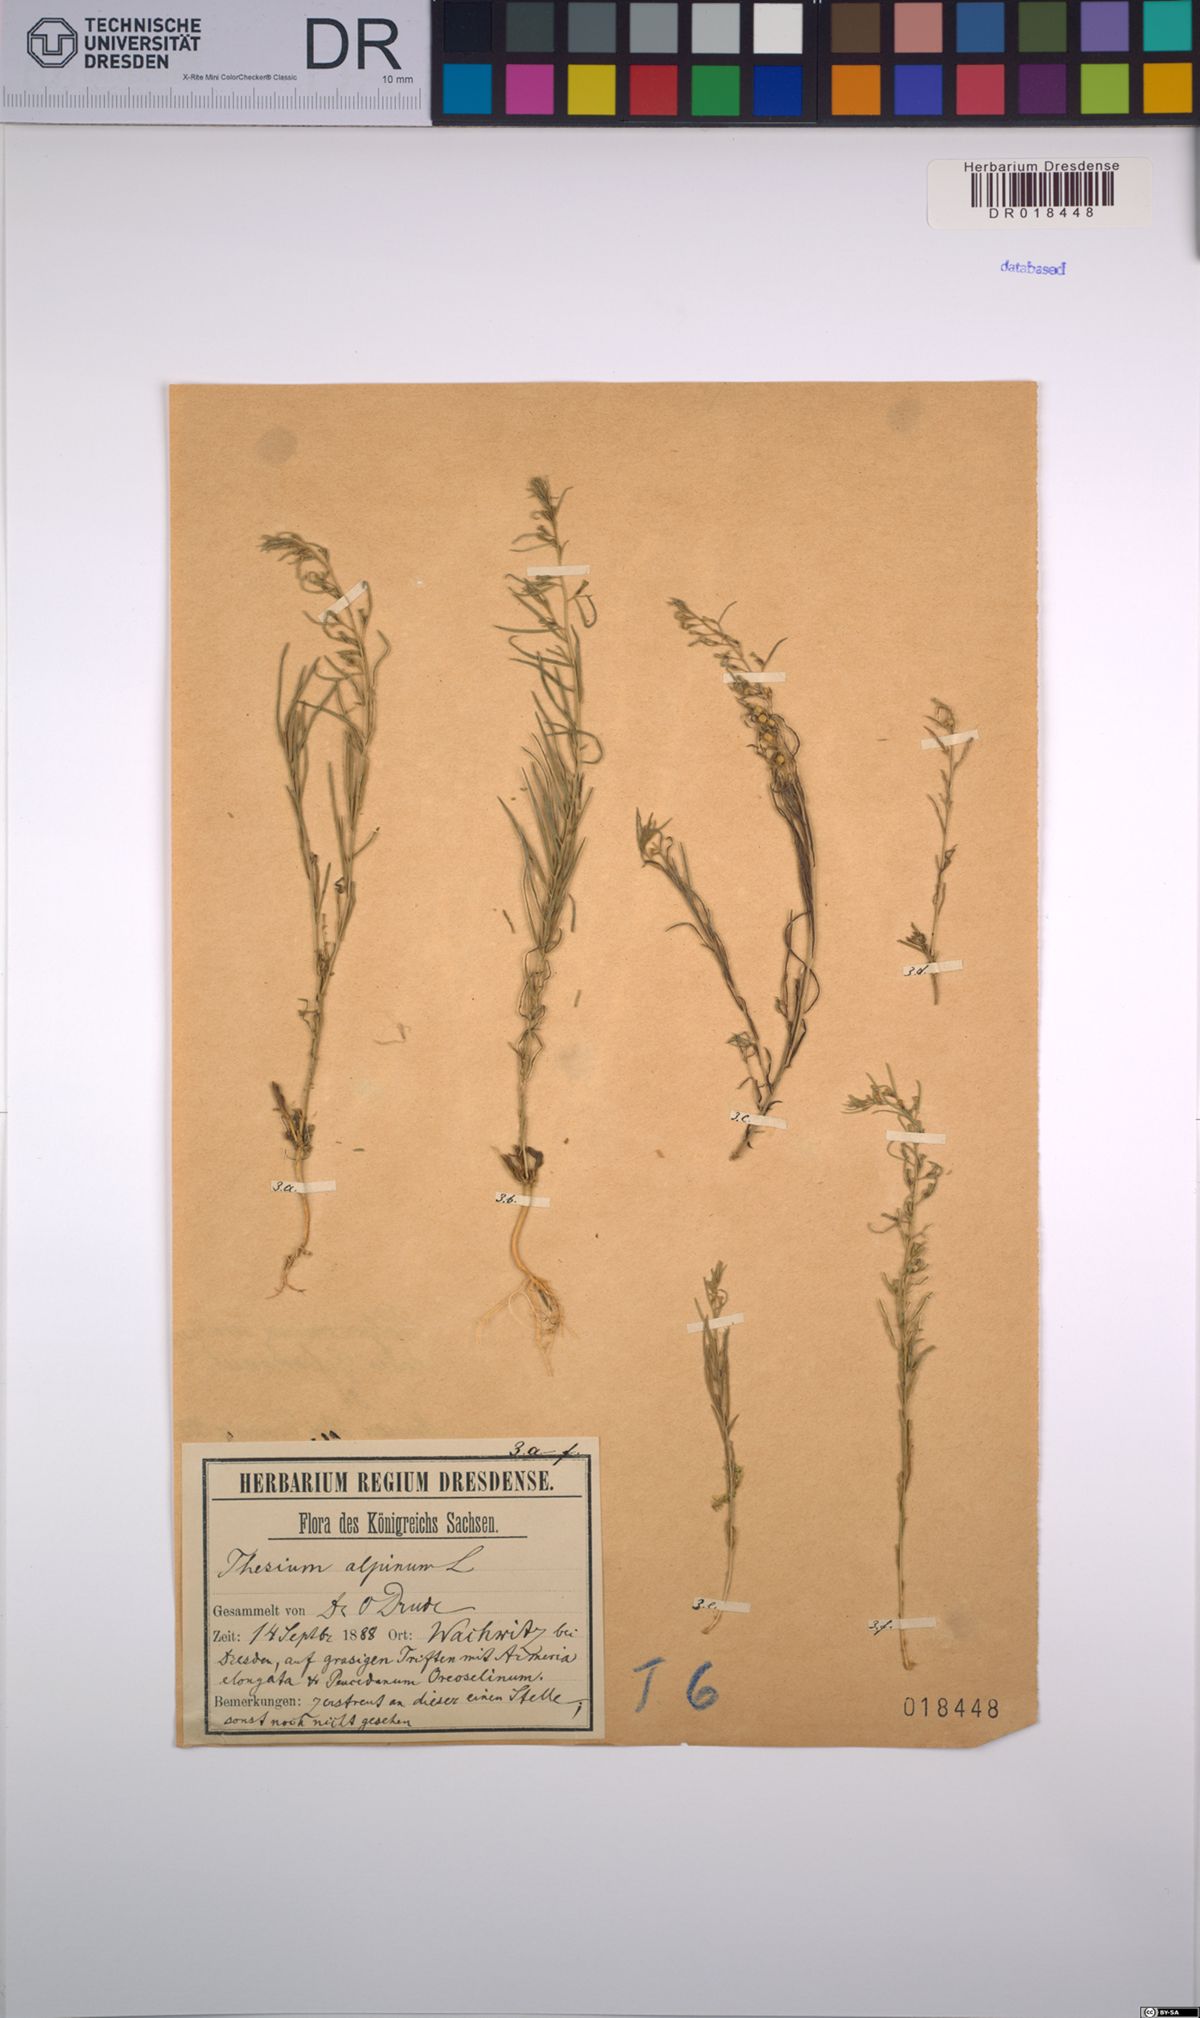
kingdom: Plantae
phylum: Tracheophyta
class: Magnoliopsida
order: Santalales
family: Thesiaceae
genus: Thesium
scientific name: Thesium alpinum
